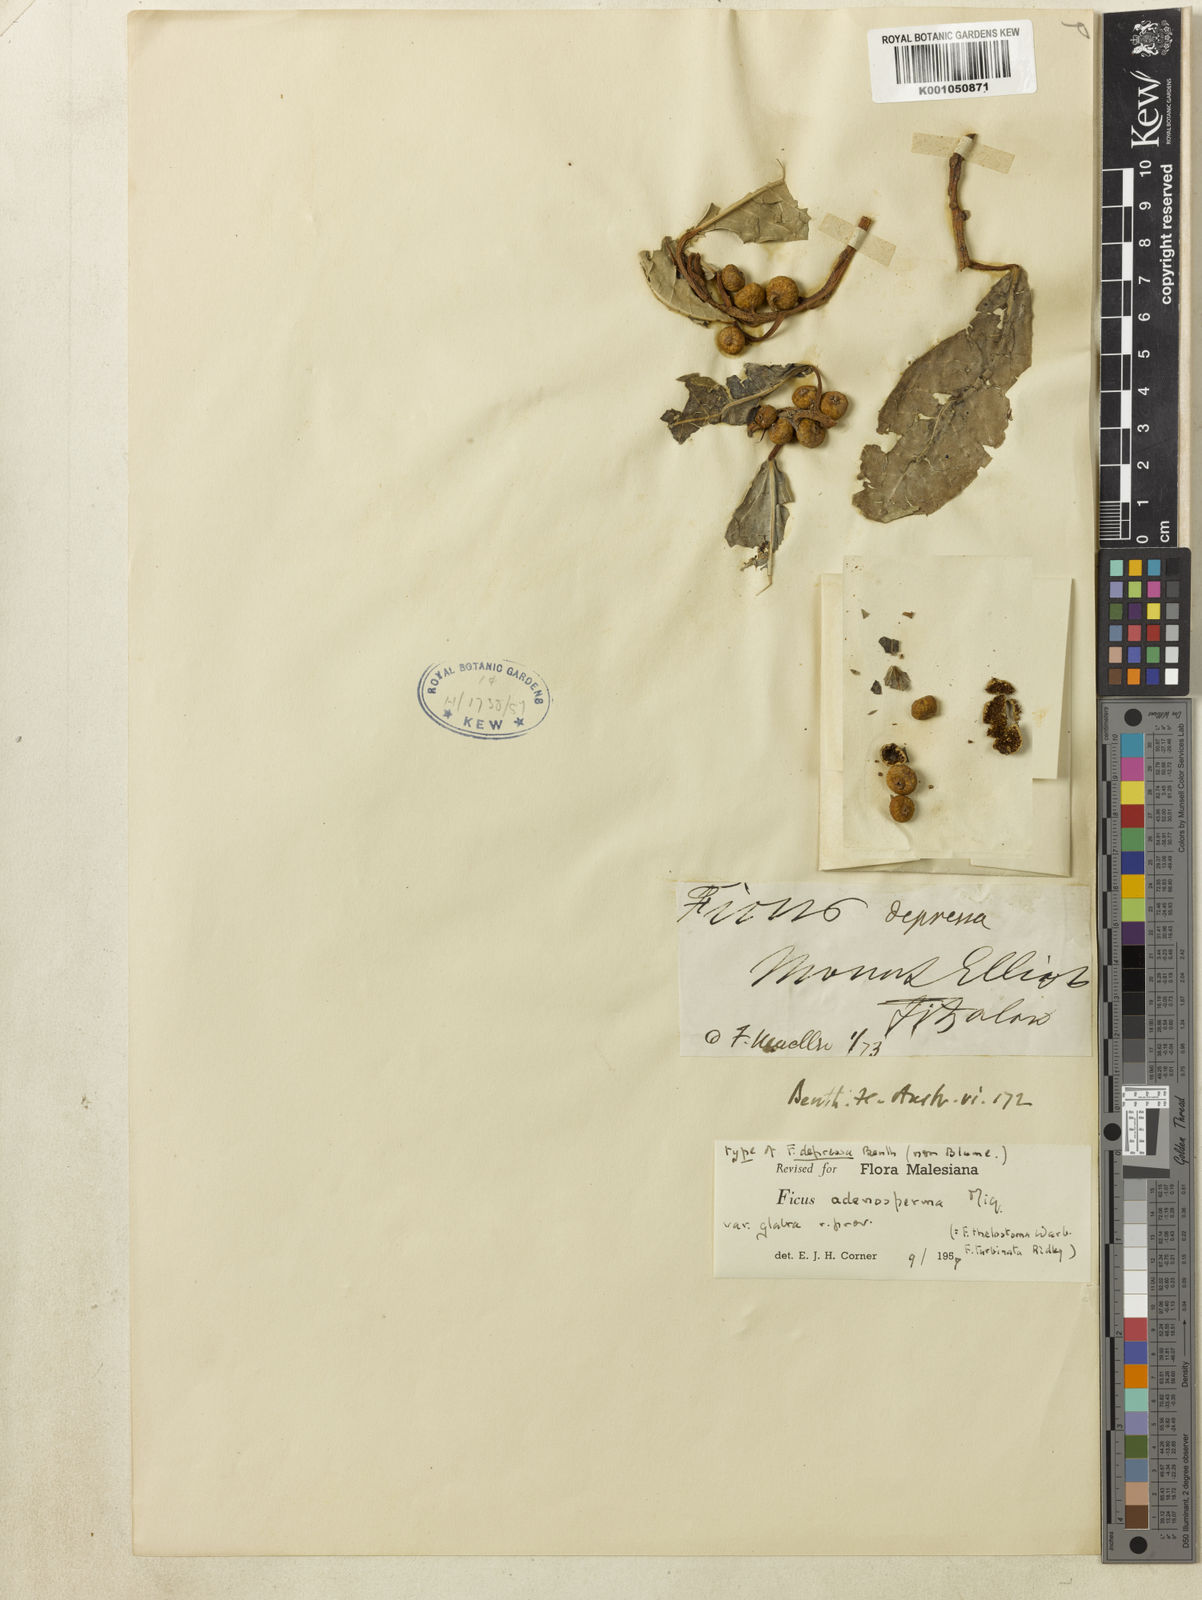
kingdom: Plantae
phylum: Tracheophyta
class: Magnoliopsida
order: Rosales
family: Moraceae
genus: Ficus
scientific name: Ficus adenosperma
